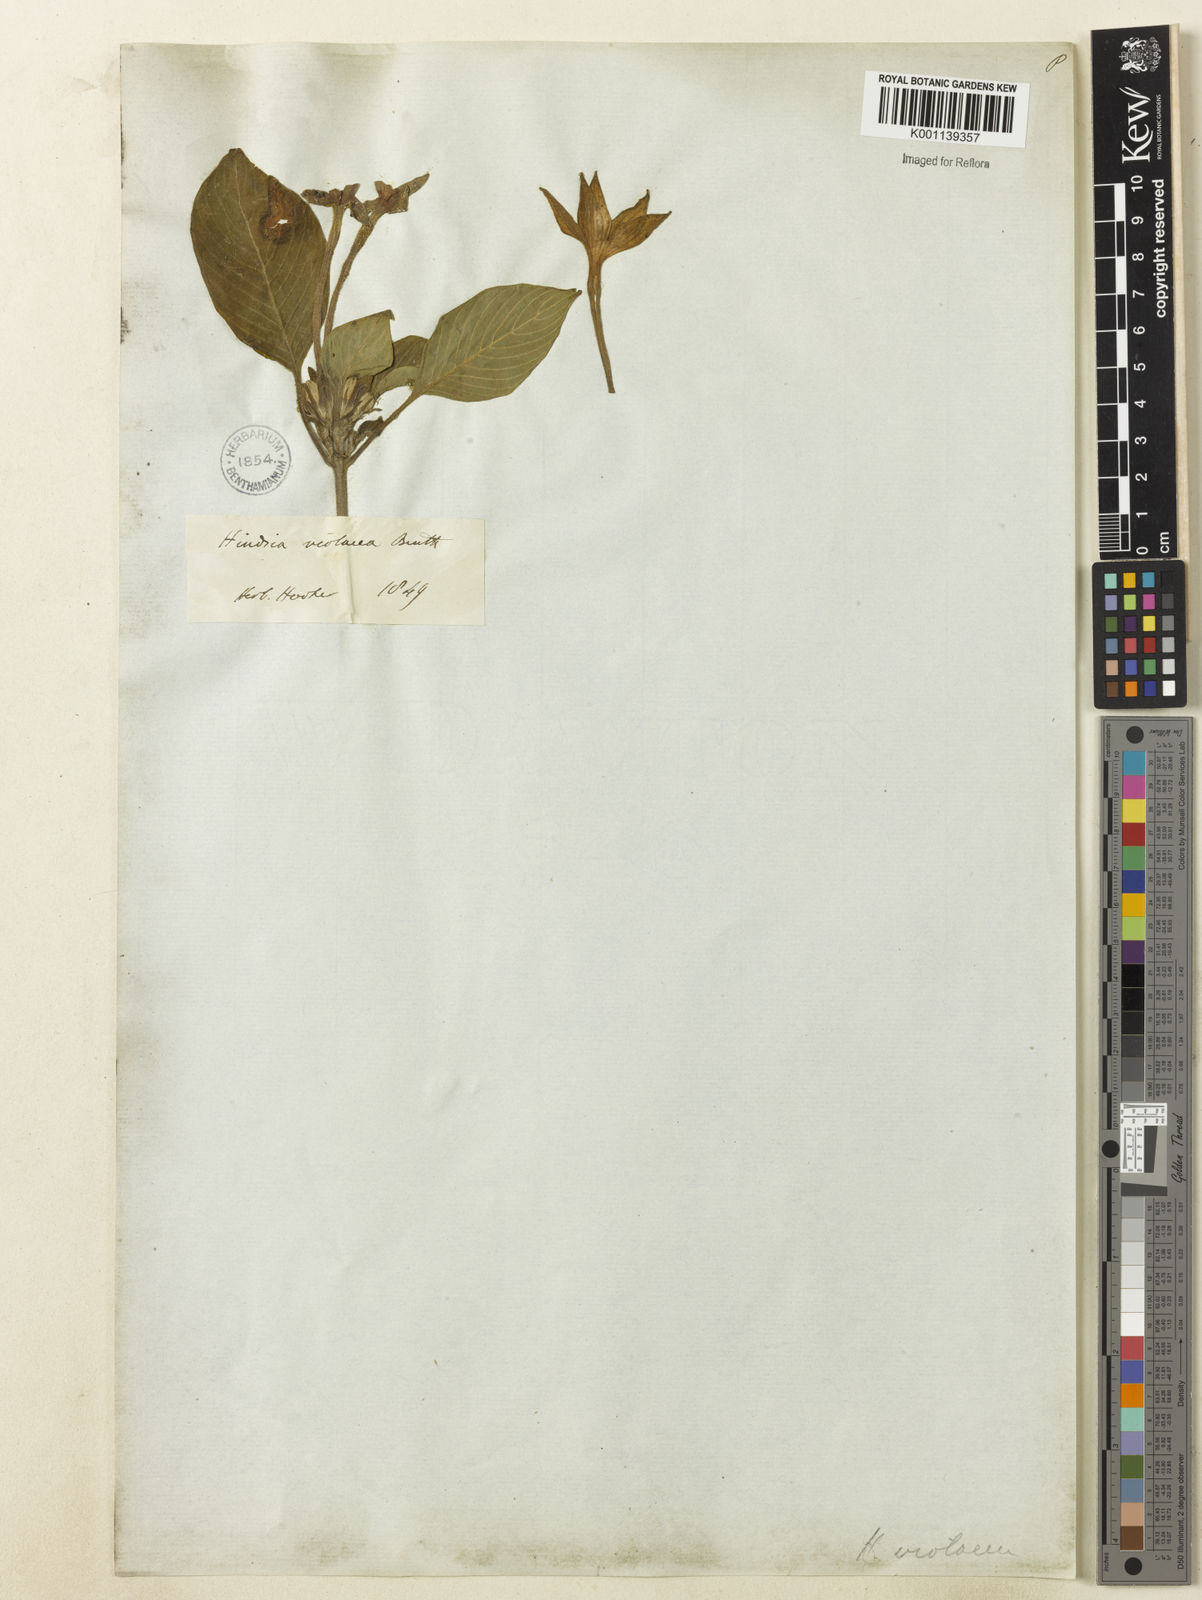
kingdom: Plantae
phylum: Tracheophyta
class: Magnoliopsida
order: Gentianales
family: Rubiaceae
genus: Hindsia
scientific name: Hindsia
